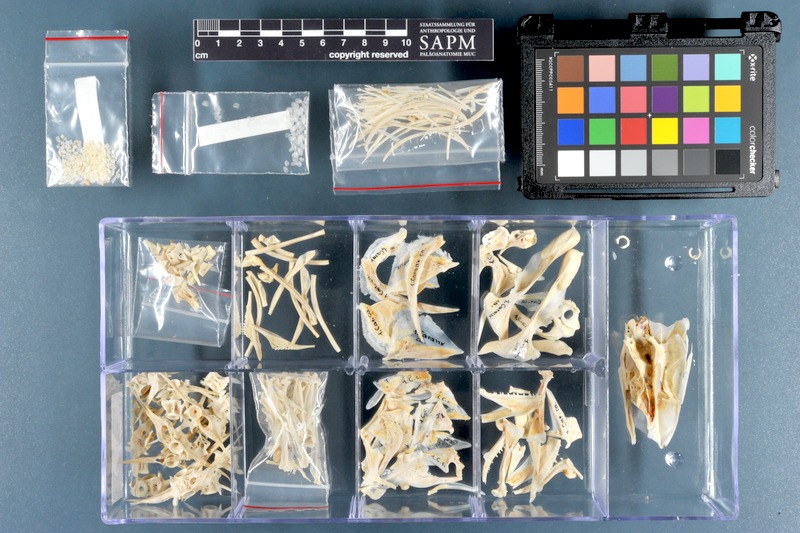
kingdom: Animalia
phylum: Chordata
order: Perciformes
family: Carangidae
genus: Caranx
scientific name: Caranx hippos
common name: Common jack
